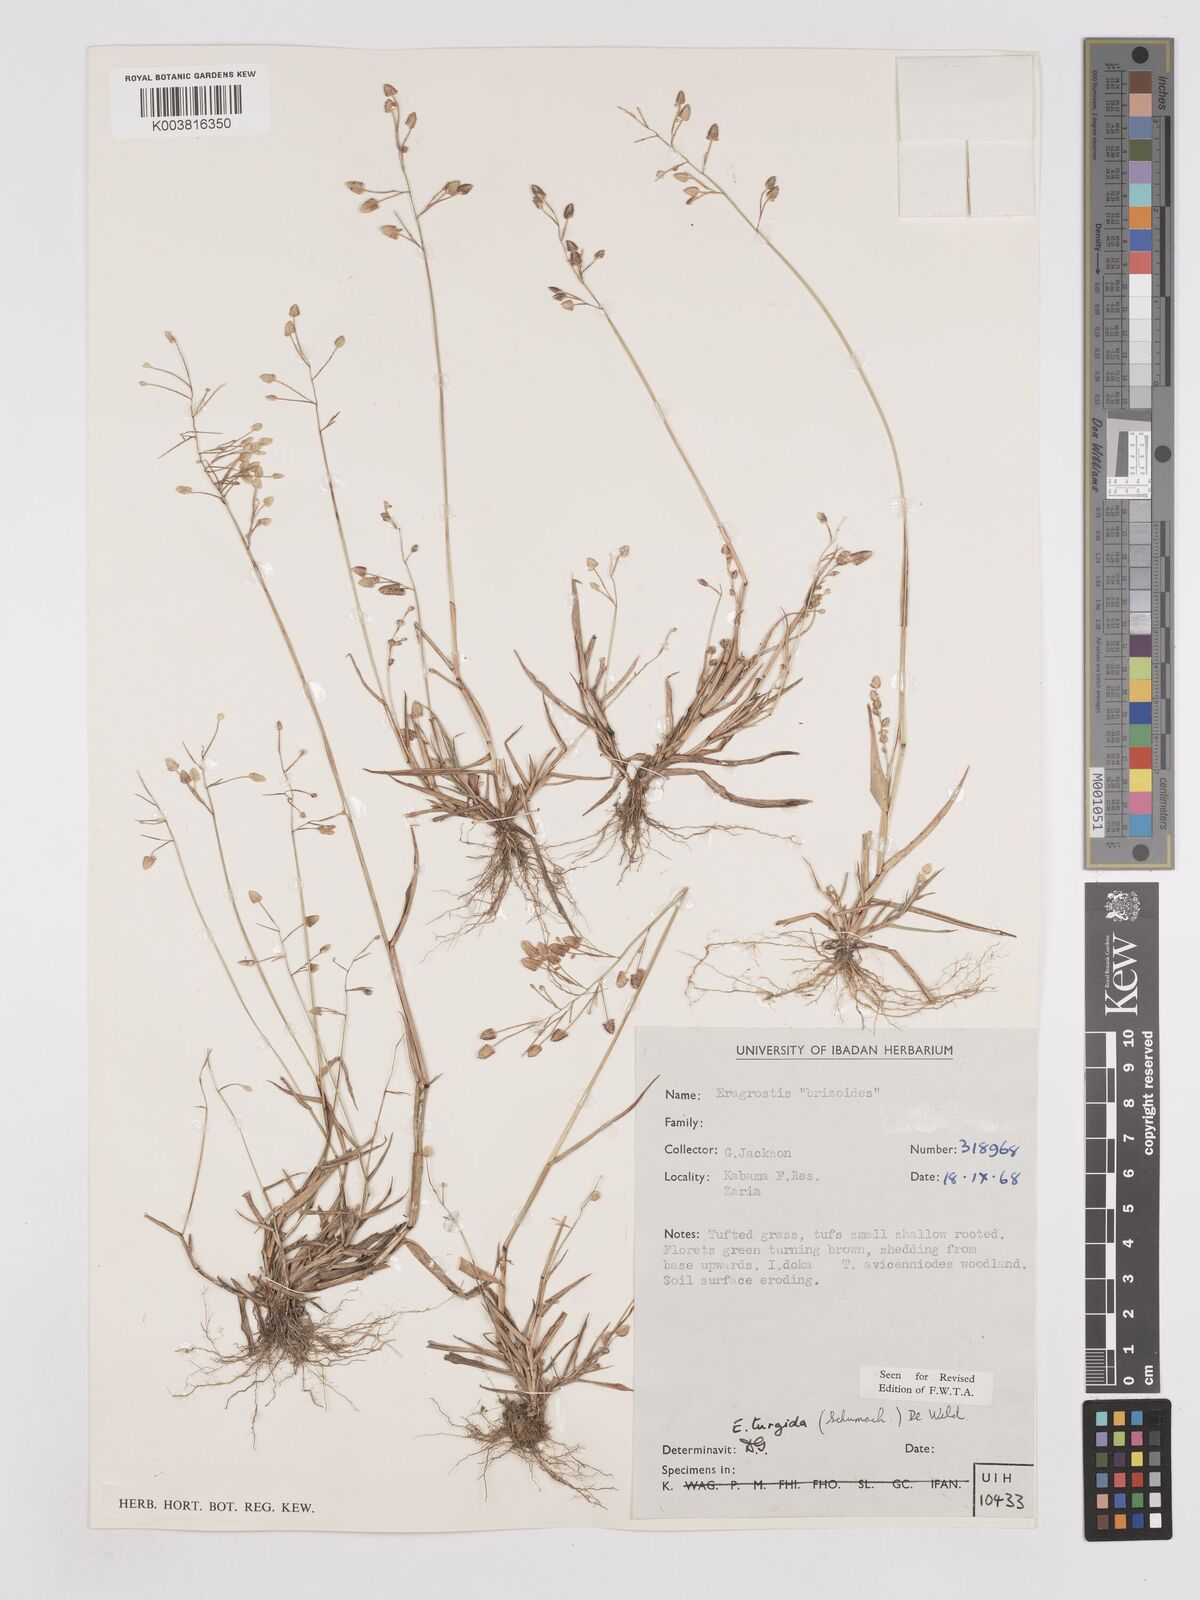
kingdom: Plantae
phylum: Tracheophyta
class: Liliopsida
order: Poales
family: Poaceae
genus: Eragrostis
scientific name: Eragrostis turgida
